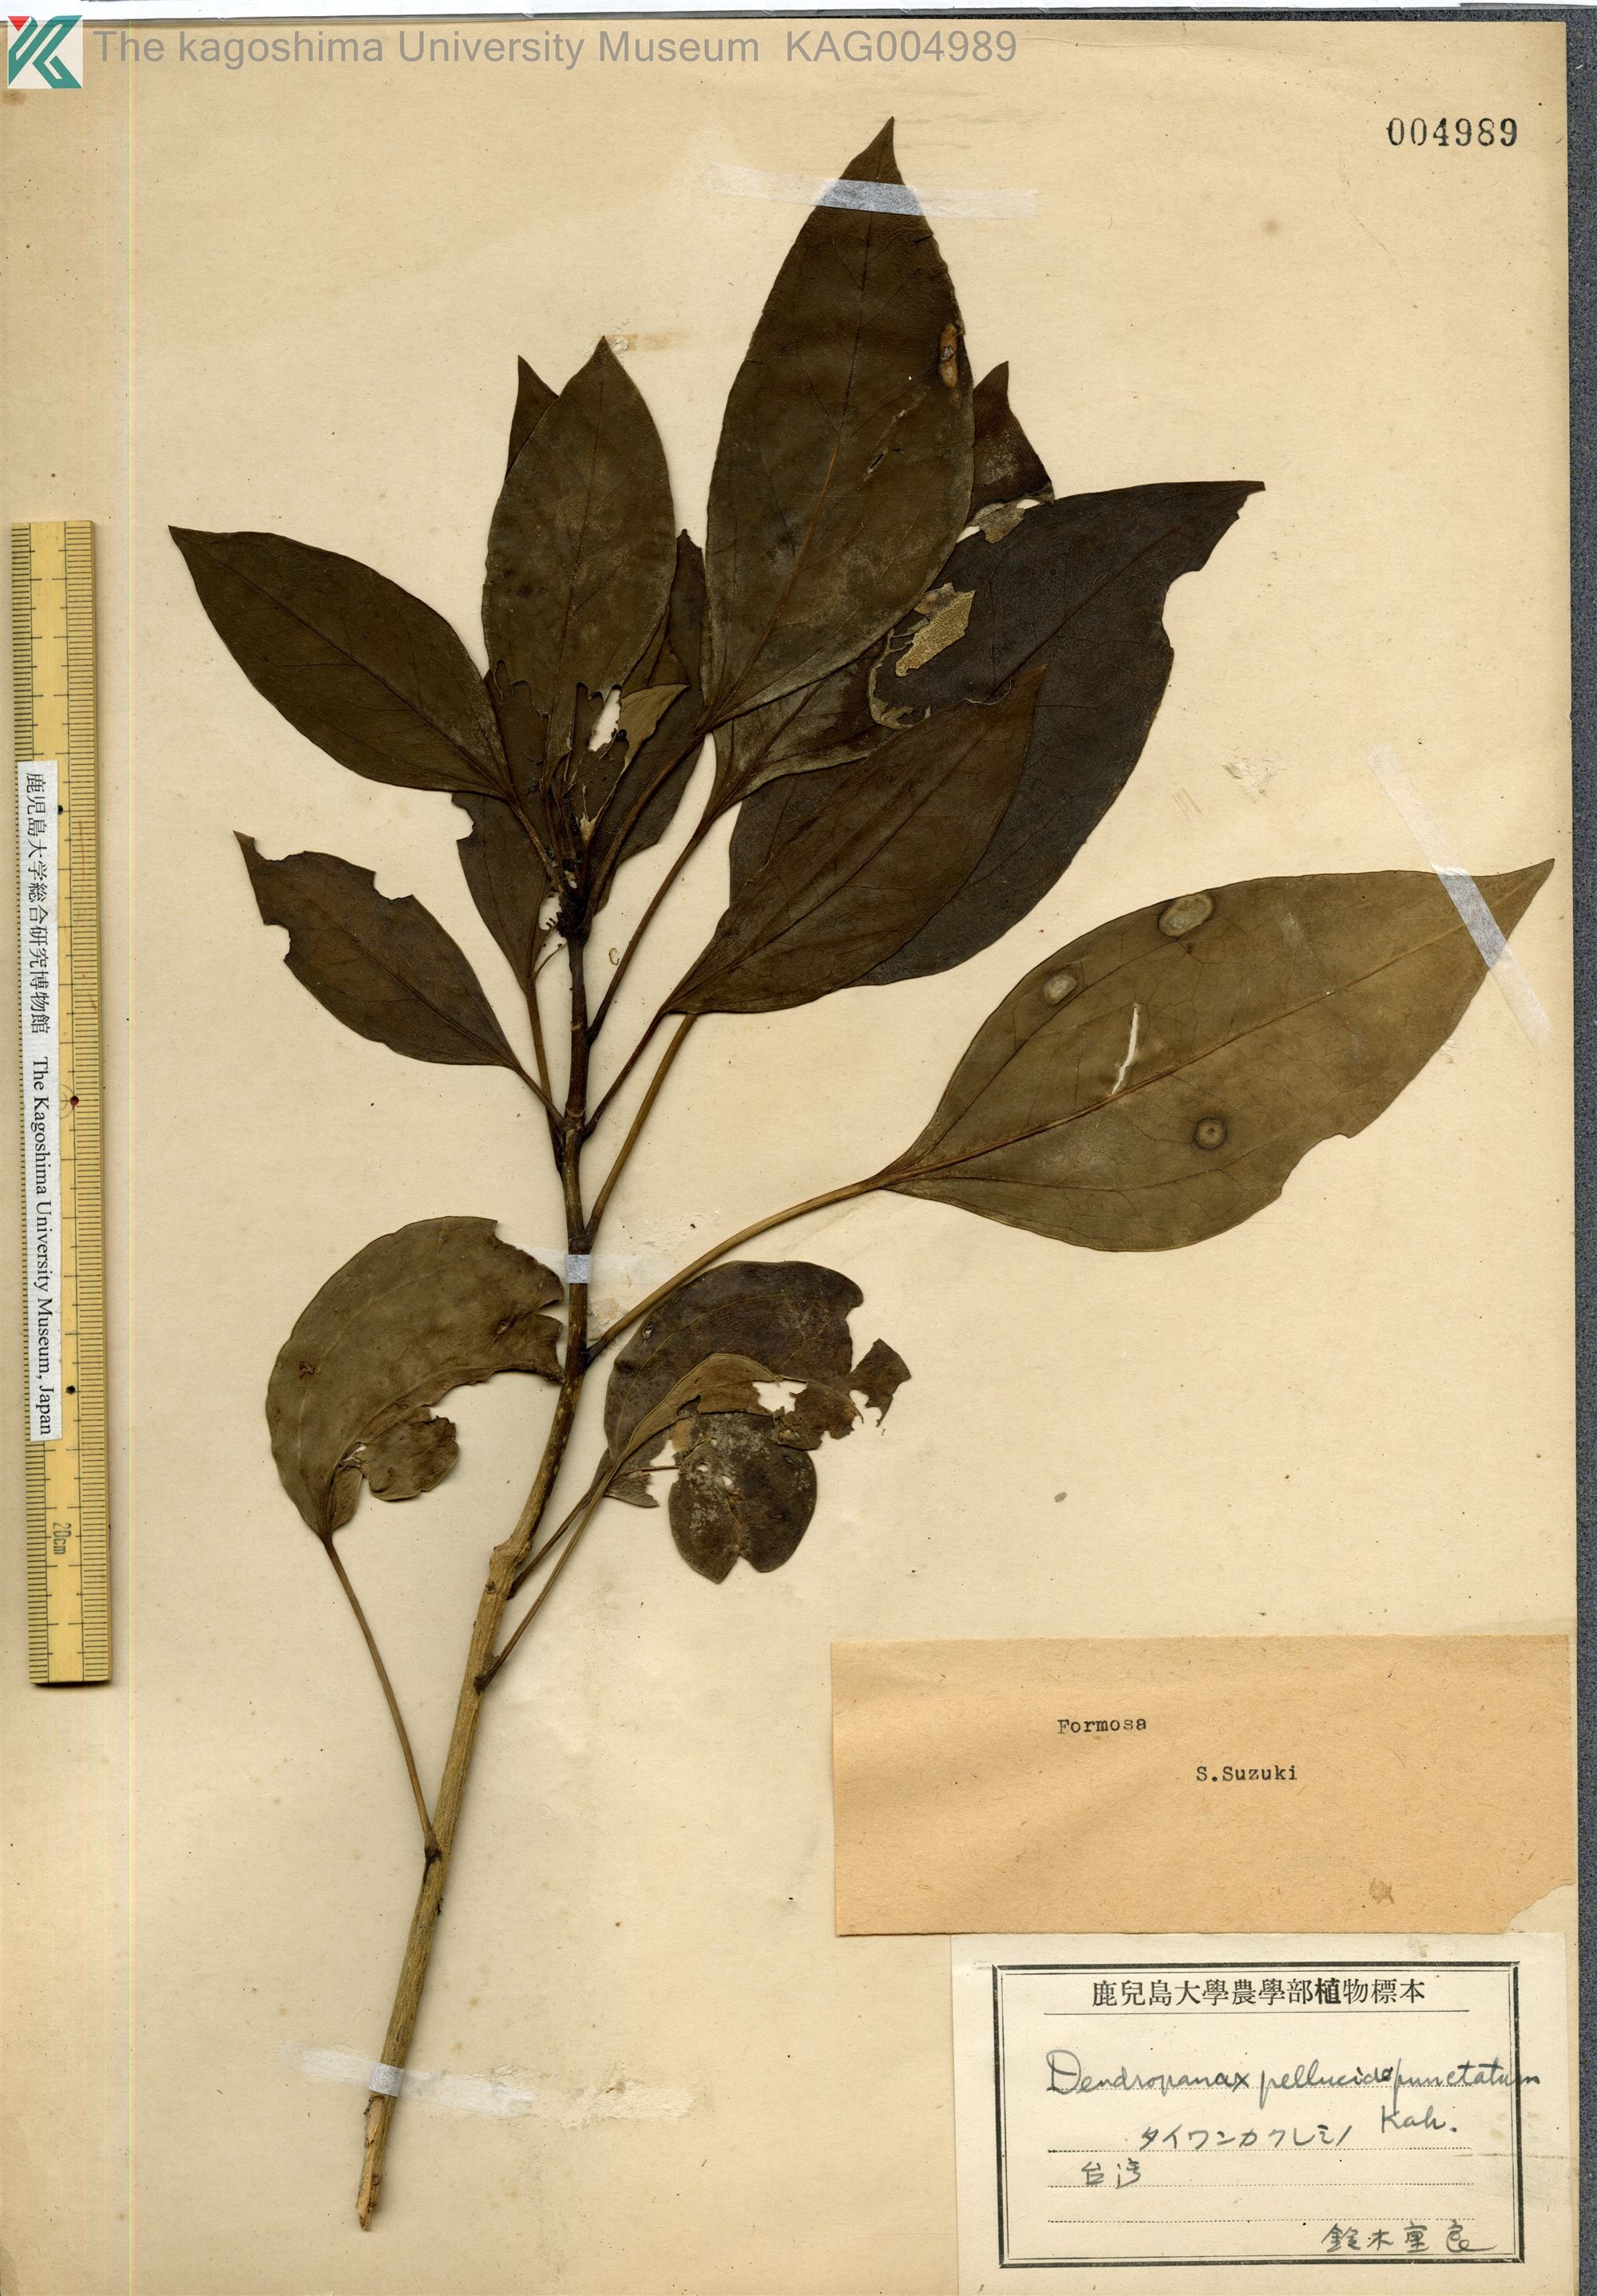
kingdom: Plantae
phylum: Tracheophyta
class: Magnoliopsida
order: Apiales
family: Araliaceae
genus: Dendropanax
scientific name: Dendropanax pellucidopunctatus
